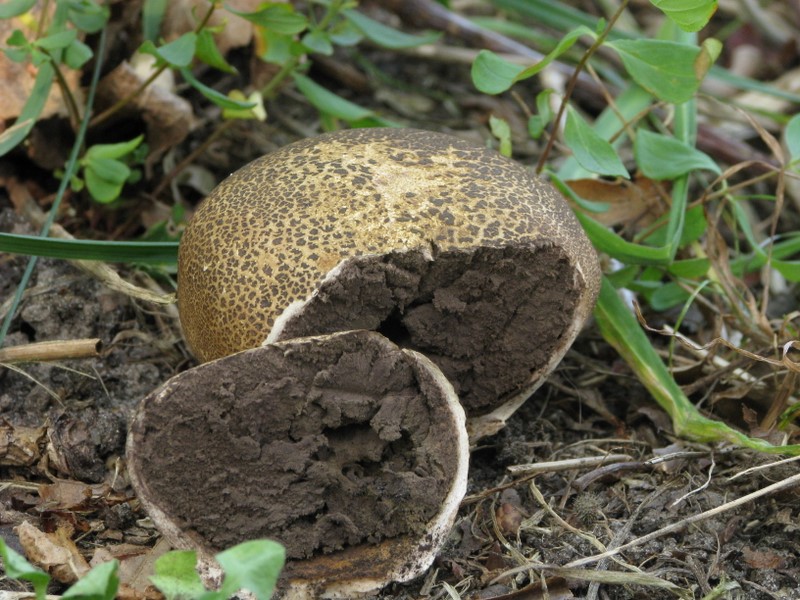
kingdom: Fungi
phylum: Basidiomycota
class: Agaricomycetes
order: Boletales
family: Sclerodermataceae
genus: Scleroderma
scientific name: Scleroderma verrucosum
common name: stilket bruskbold
